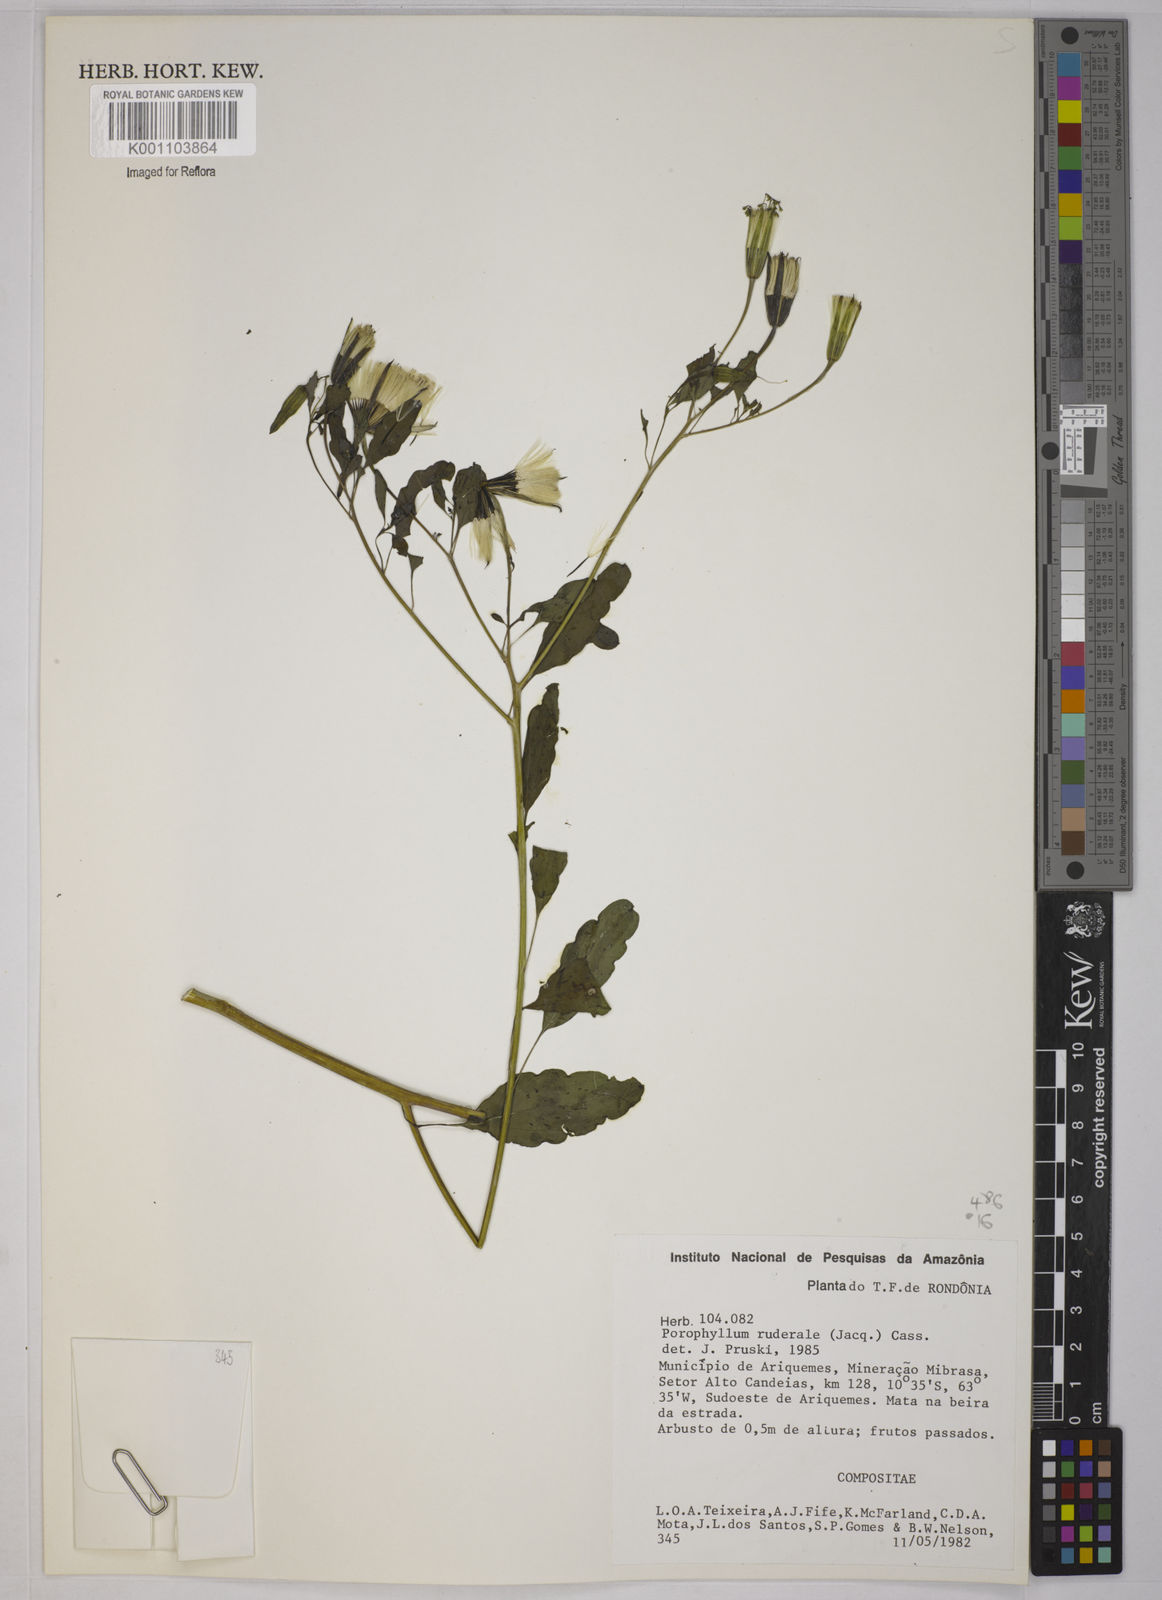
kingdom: Plantae
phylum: Tracheophyta
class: Magnoliopsida
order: Asterales
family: Asteraceae
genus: Porophyllum
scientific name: Porophyllum ruderale
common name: Yerba porosa
